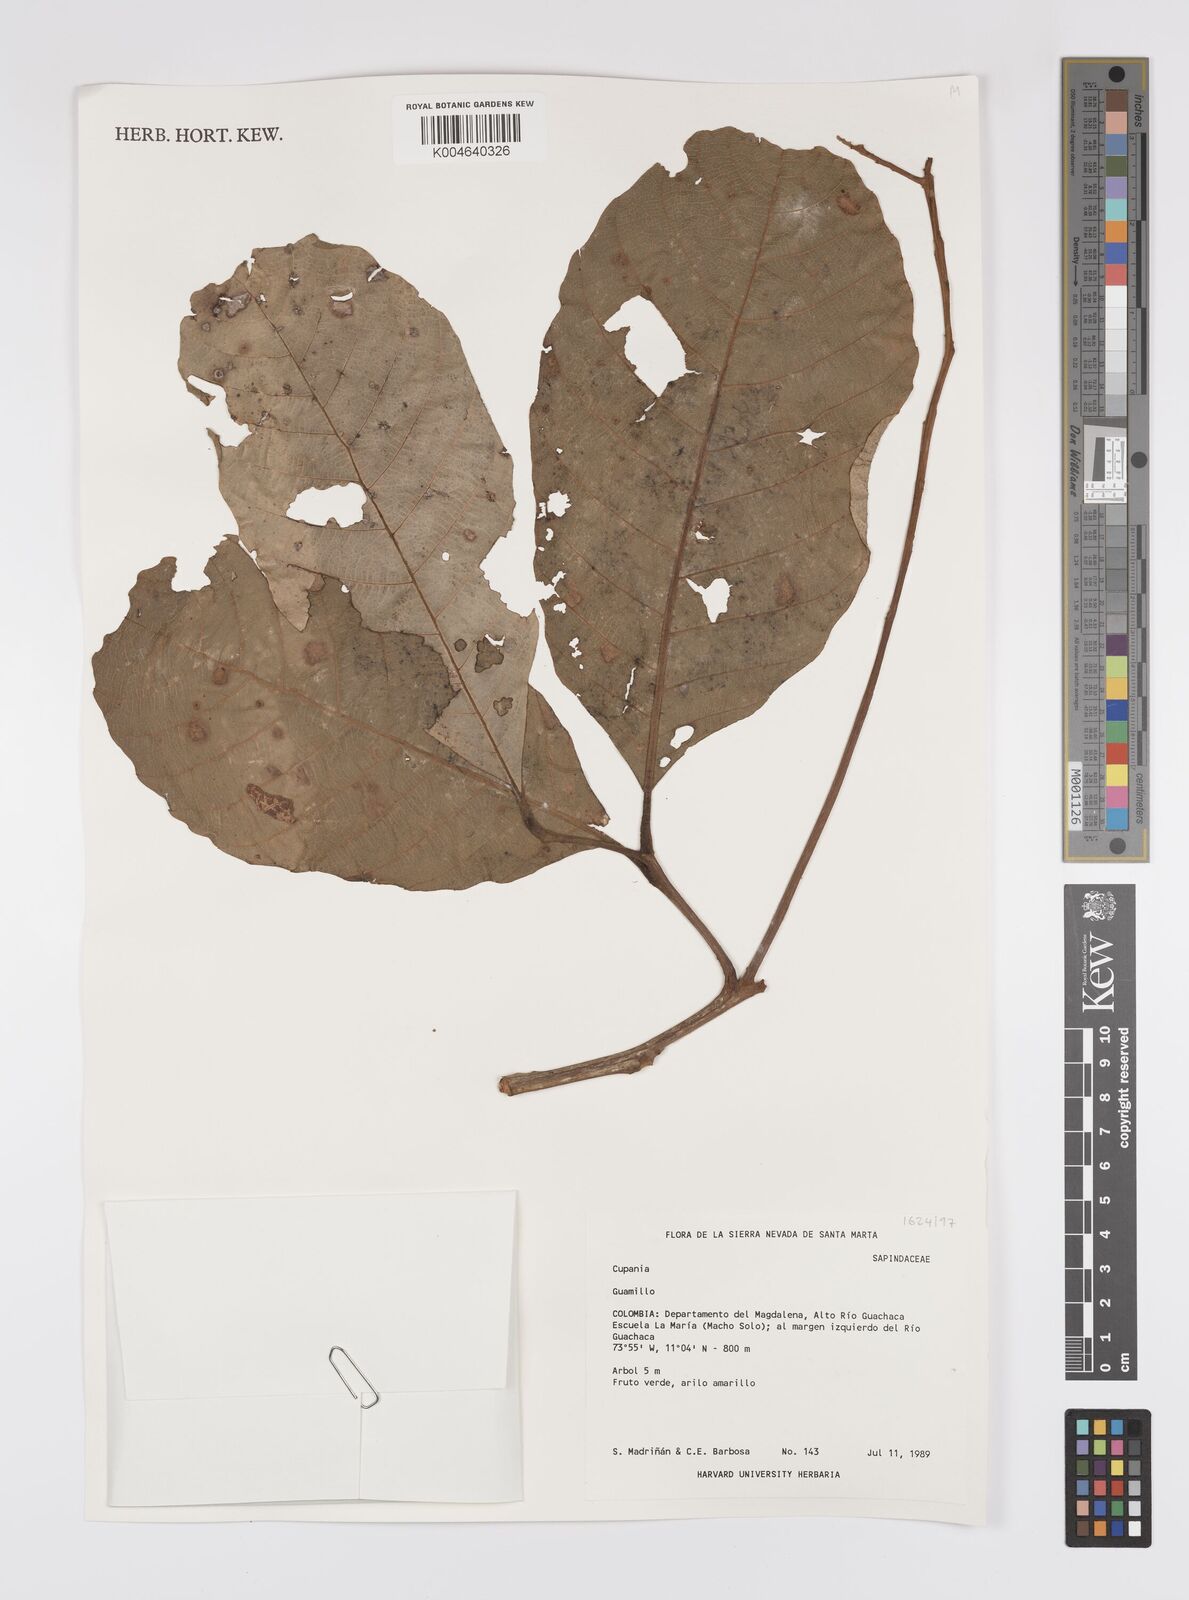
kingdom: Plantae
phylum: Tracheophyta
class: Magnoliopsida
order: Sapindales
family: Sapindaceae
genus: Cupania
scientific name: Cupania
